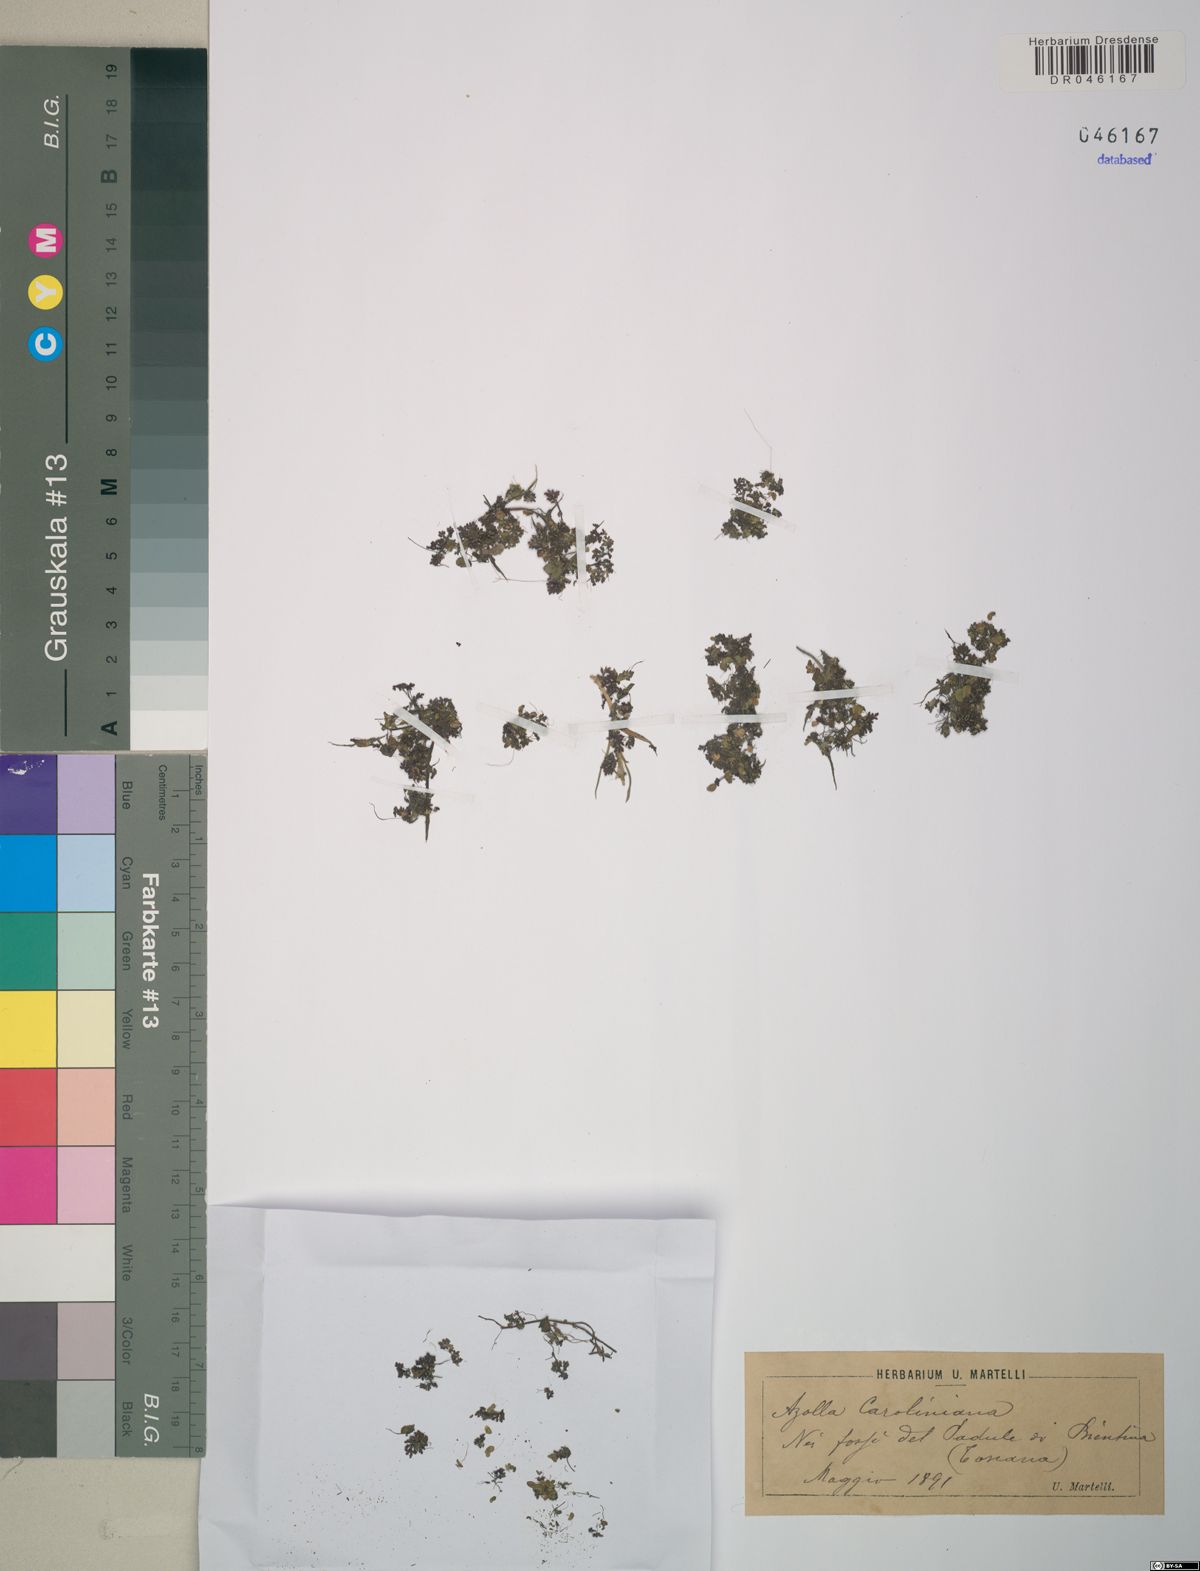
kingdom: Plantae
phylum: Tracheophyta
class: Polypodiopsida
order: Salviniales
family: Salviniaceae
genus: Azolla
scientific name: Azolla caroliniana
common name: Carolina mosquitofern
